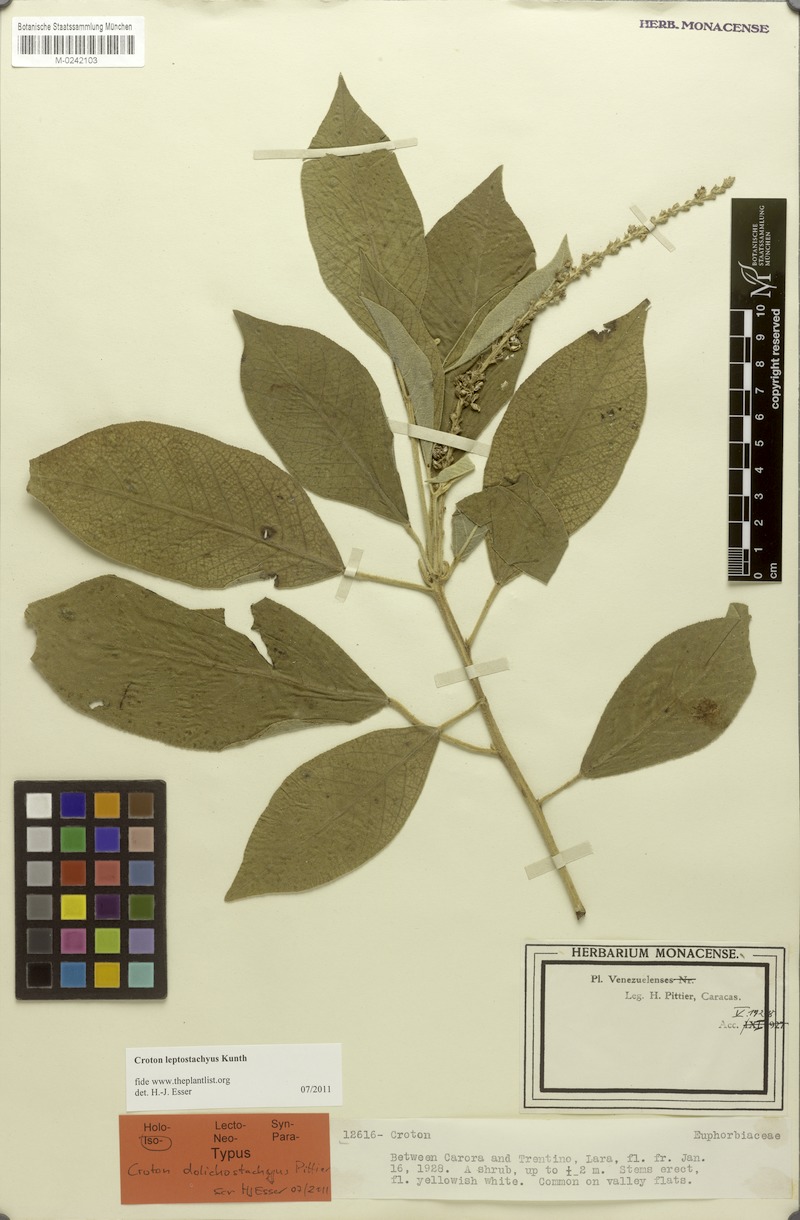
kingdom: Plantae
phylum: Tracheophyta
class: Magnoliopsida
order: Malpighiales
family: Euphorbiaceae
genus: Croton
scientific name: Croton leptostachyus
